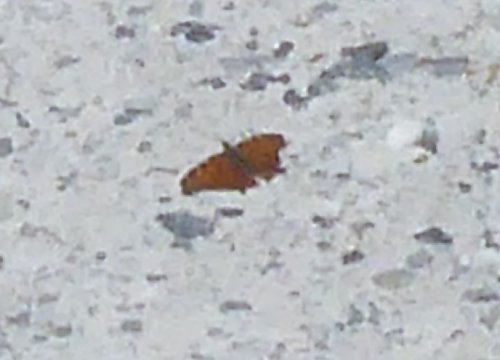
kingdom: Animalia
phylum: Arthropoda
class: Insecta
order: Lepidoptera
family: Nymphalidae
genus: Polygonia
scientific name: Polygonia
